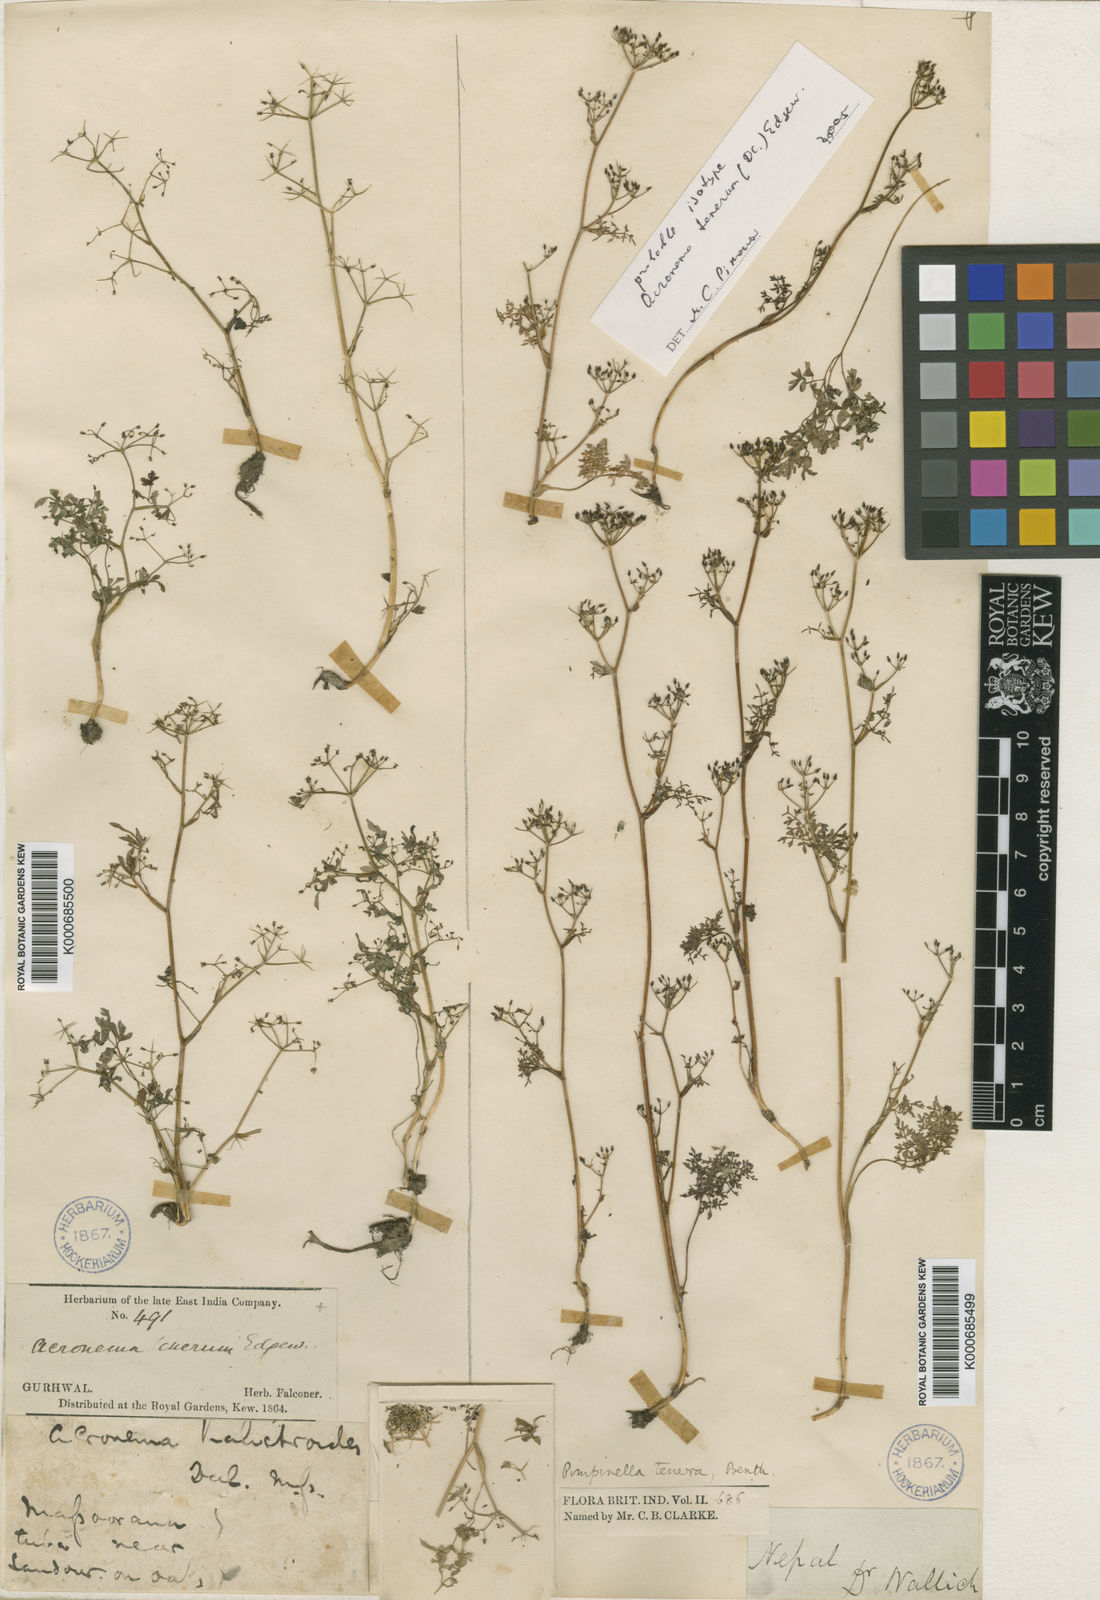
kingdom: Plantae
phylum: Tracheophyta
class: Magnoliopsida
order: Apiales
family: Apiaceae
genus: Pimpinella
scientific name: Pimpinella
